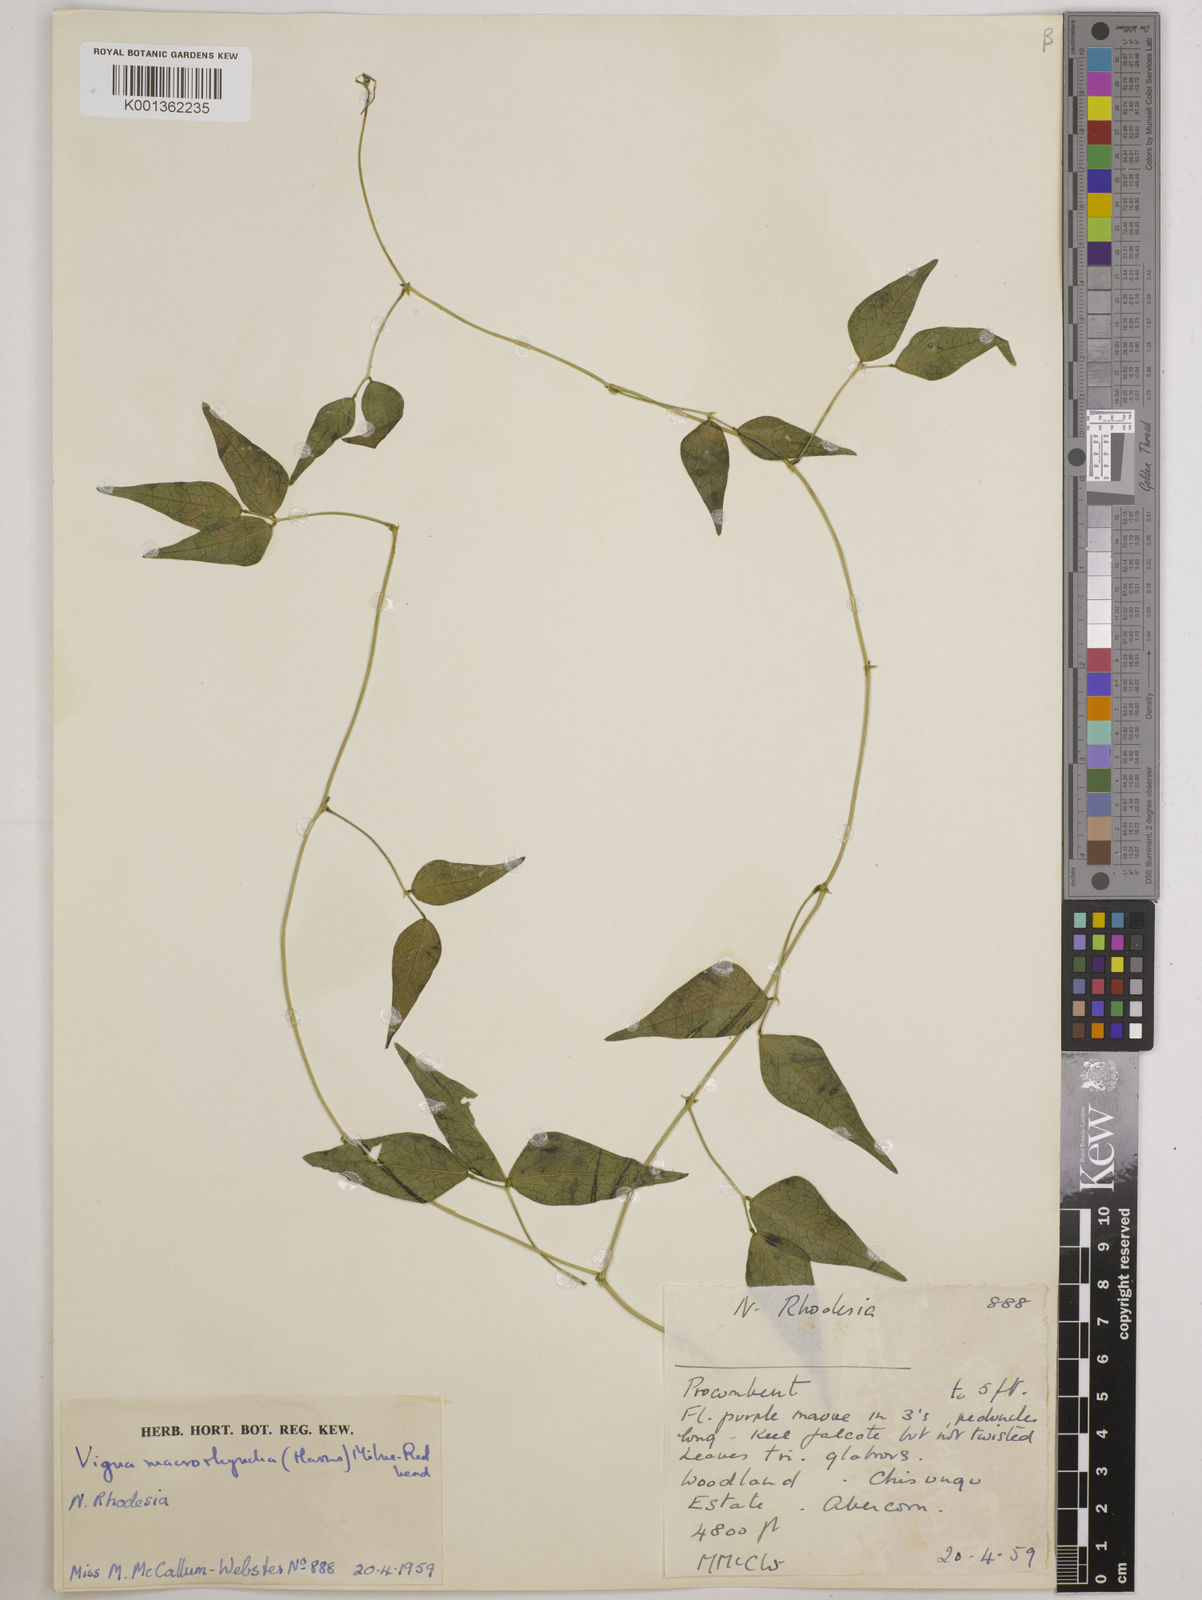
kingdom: Plantae
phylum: Tracheophyta
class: Magnoliopsida
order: Fabales
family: Fabaceae
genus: Wajira
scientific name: Wajira grahamiana
